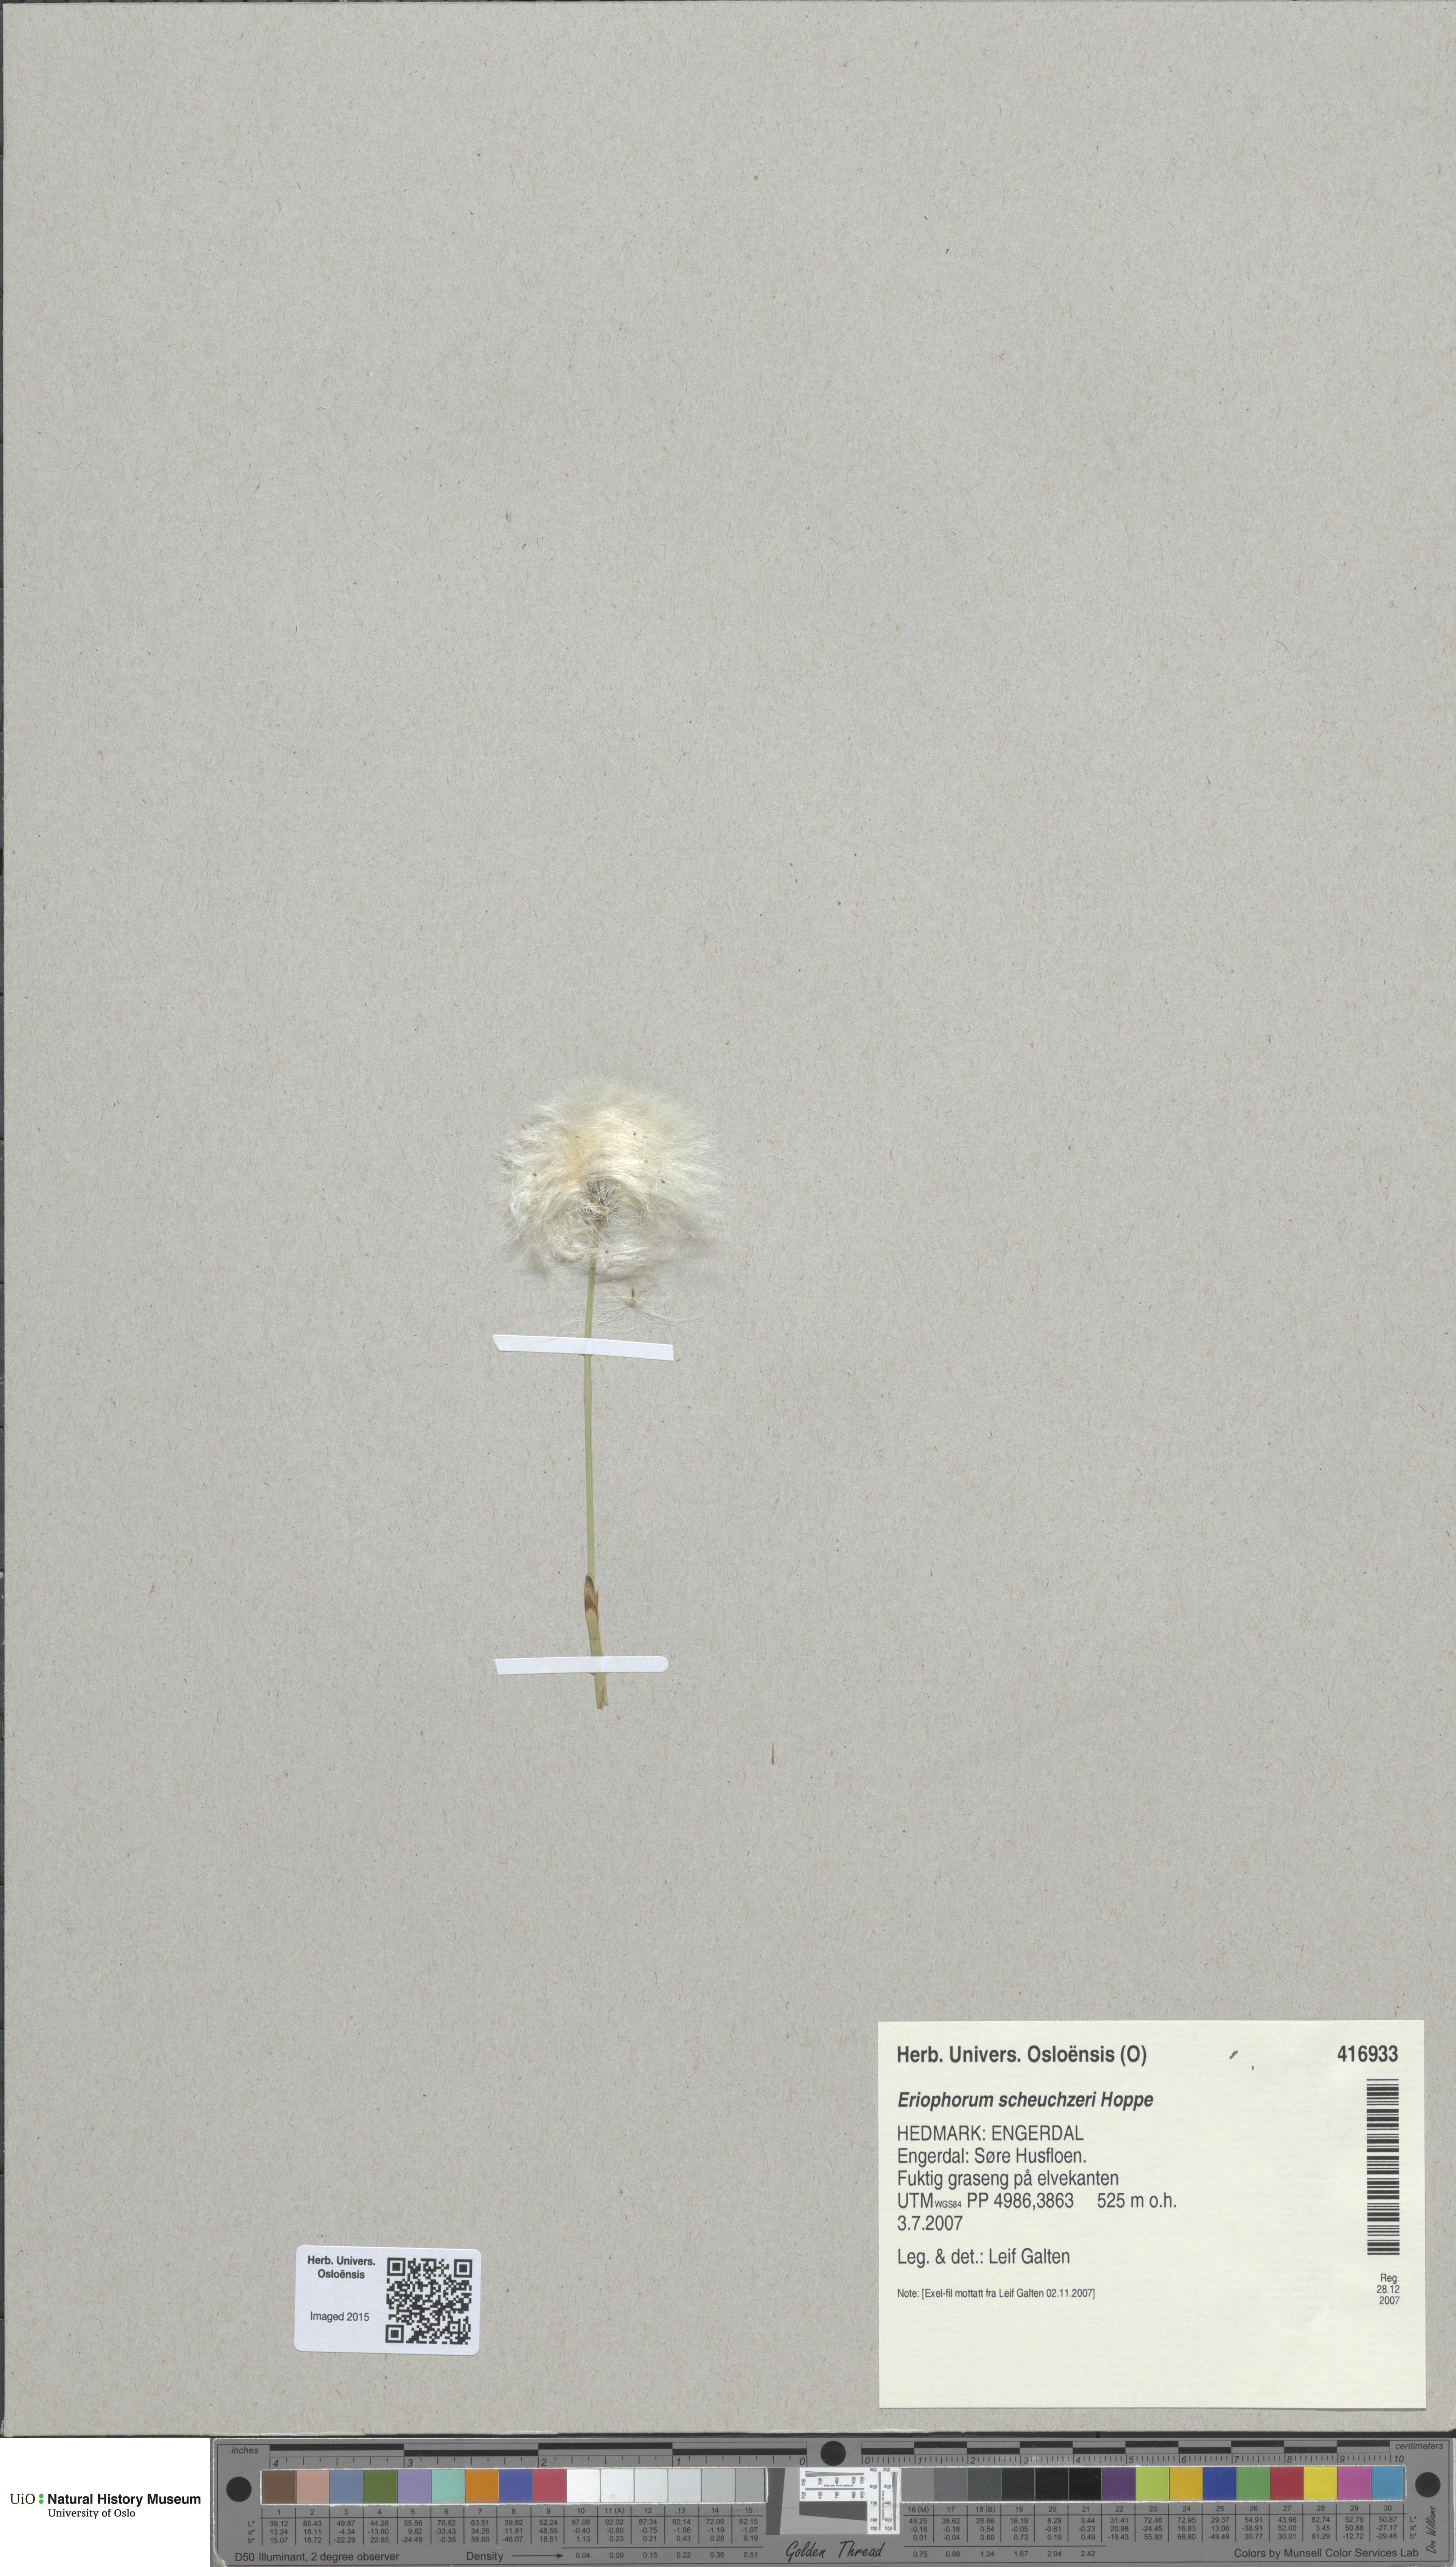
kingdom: Plantae
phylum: Tracheophyta
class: Liliopsida
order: Poales
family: Cyperaceae
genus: Eriophorum
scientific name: Eriophorum scheuchzeri
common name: Scheuchzer's cottongrass
